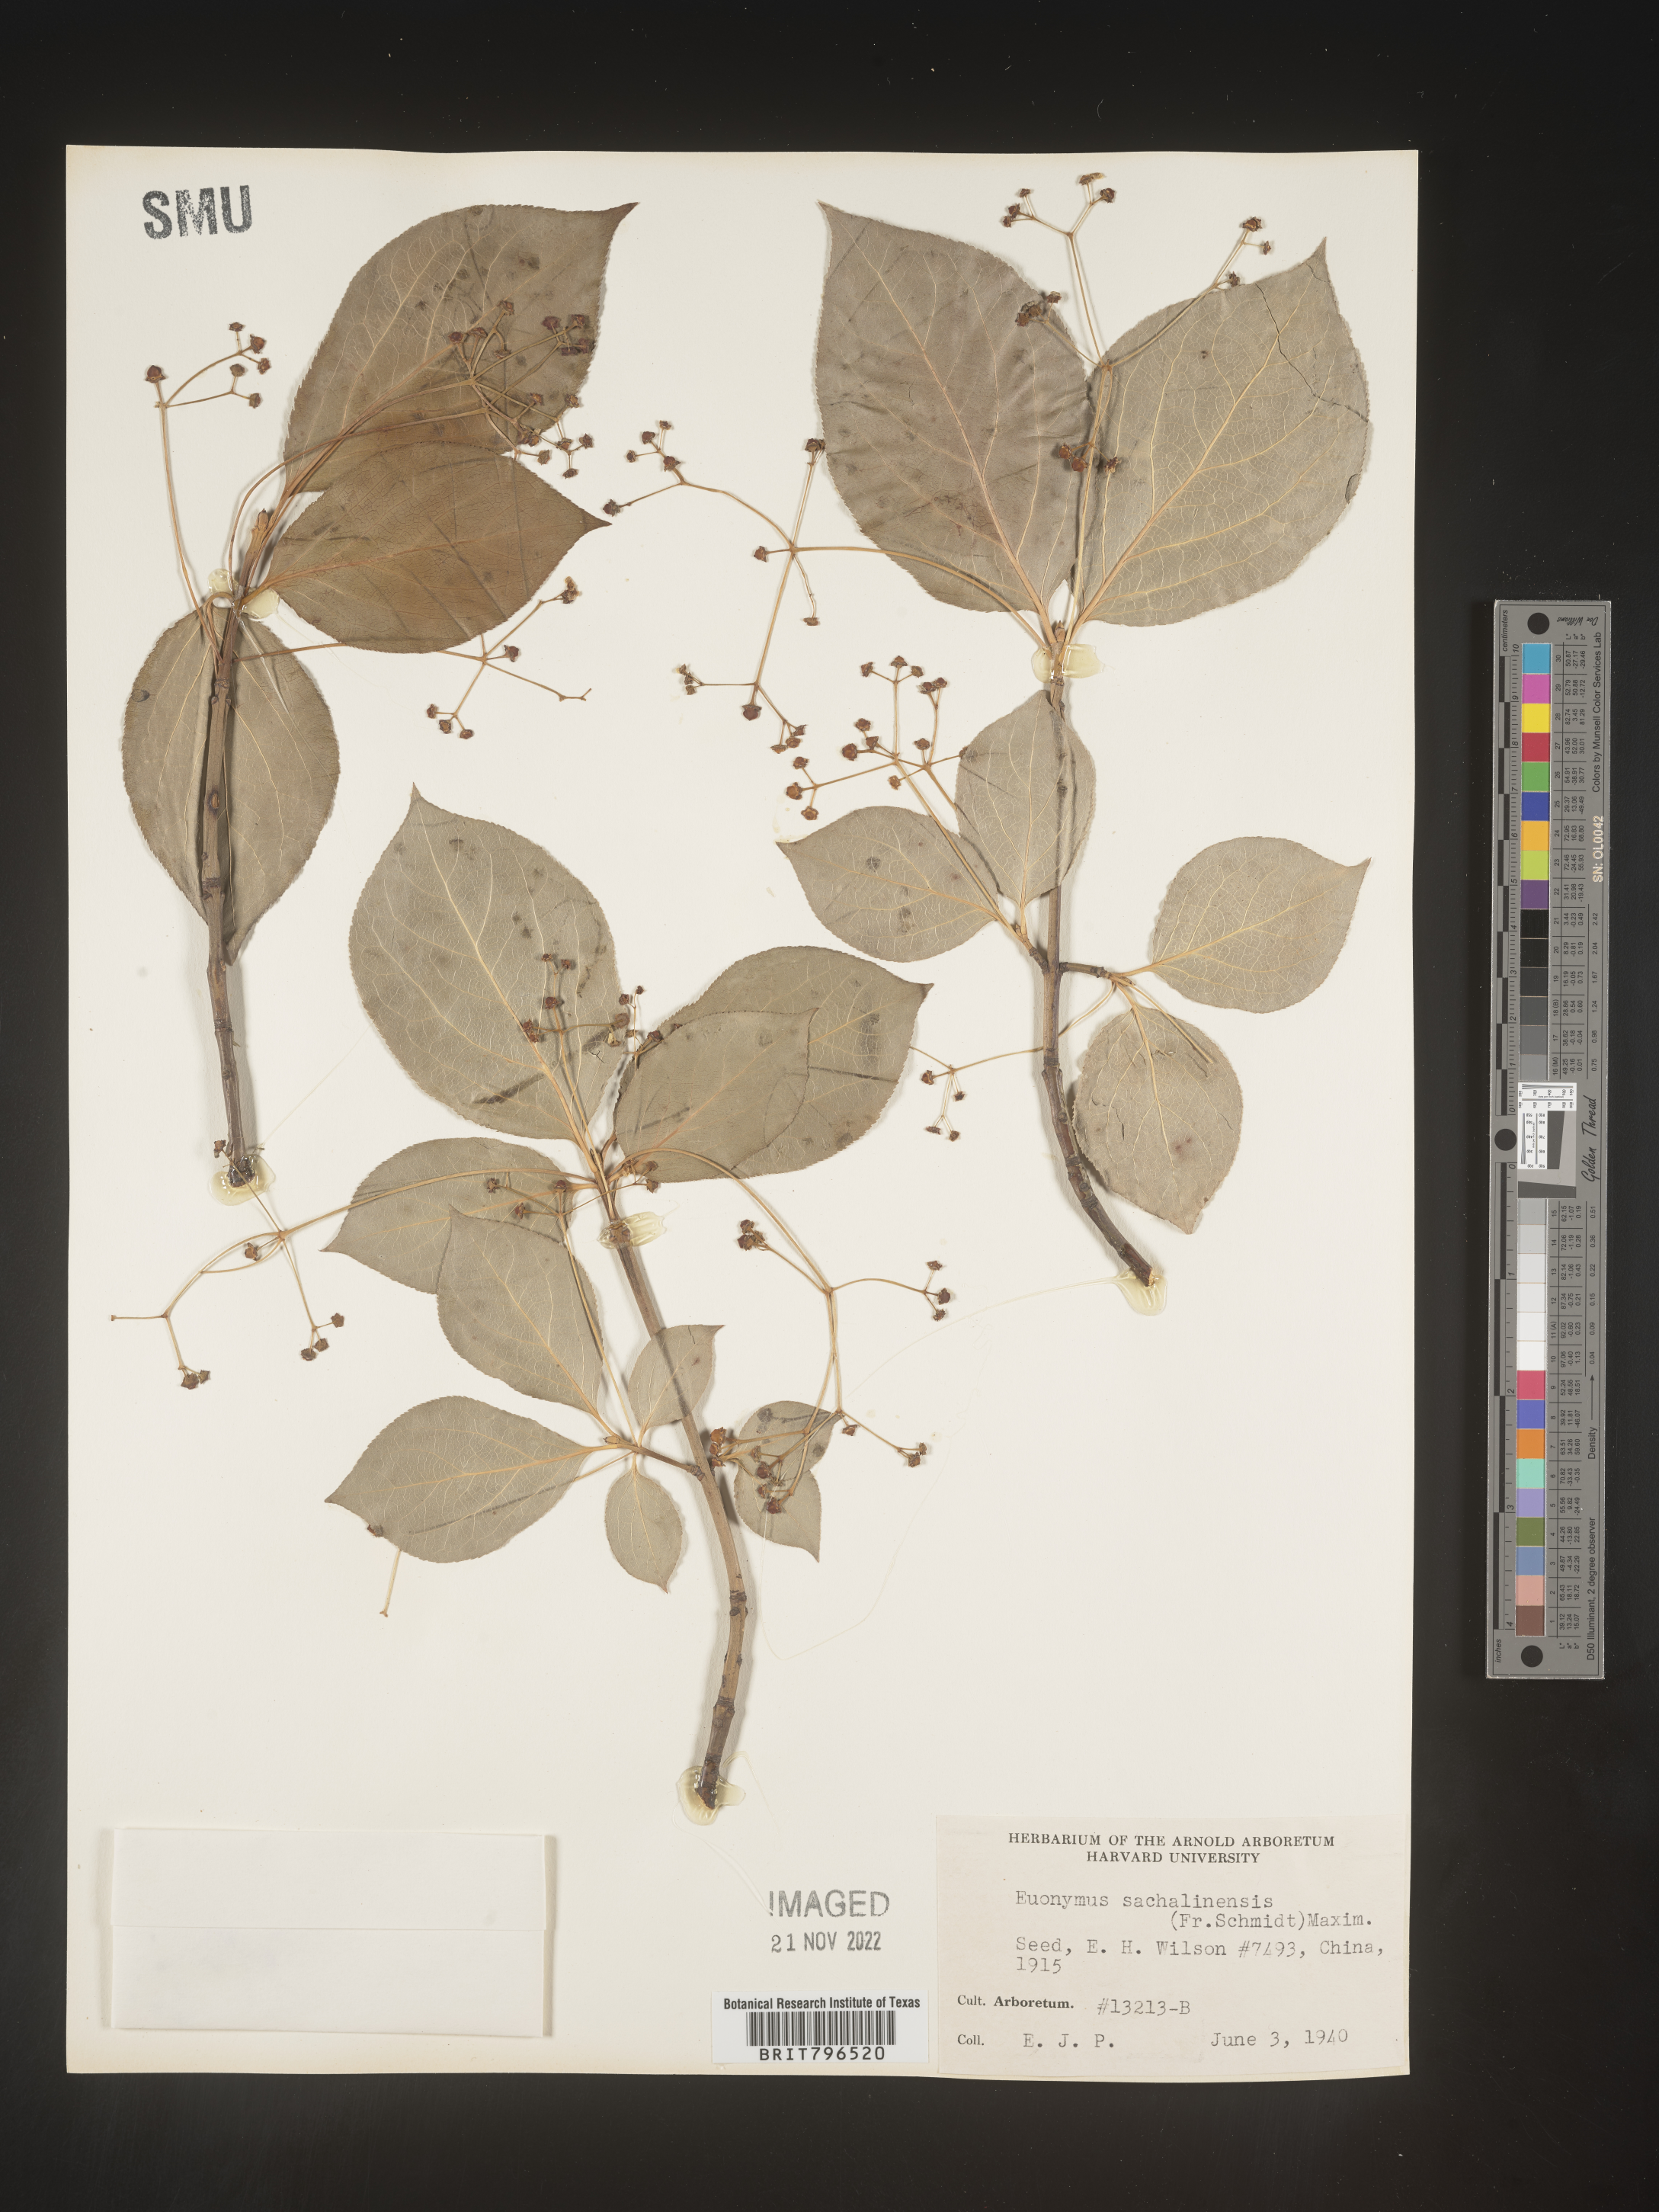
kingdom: Plantae
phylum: Tracheophyta
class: Magnoliopsida
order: Celastrales
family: Celastraceae
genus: Euonymus
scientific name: Euonymus
